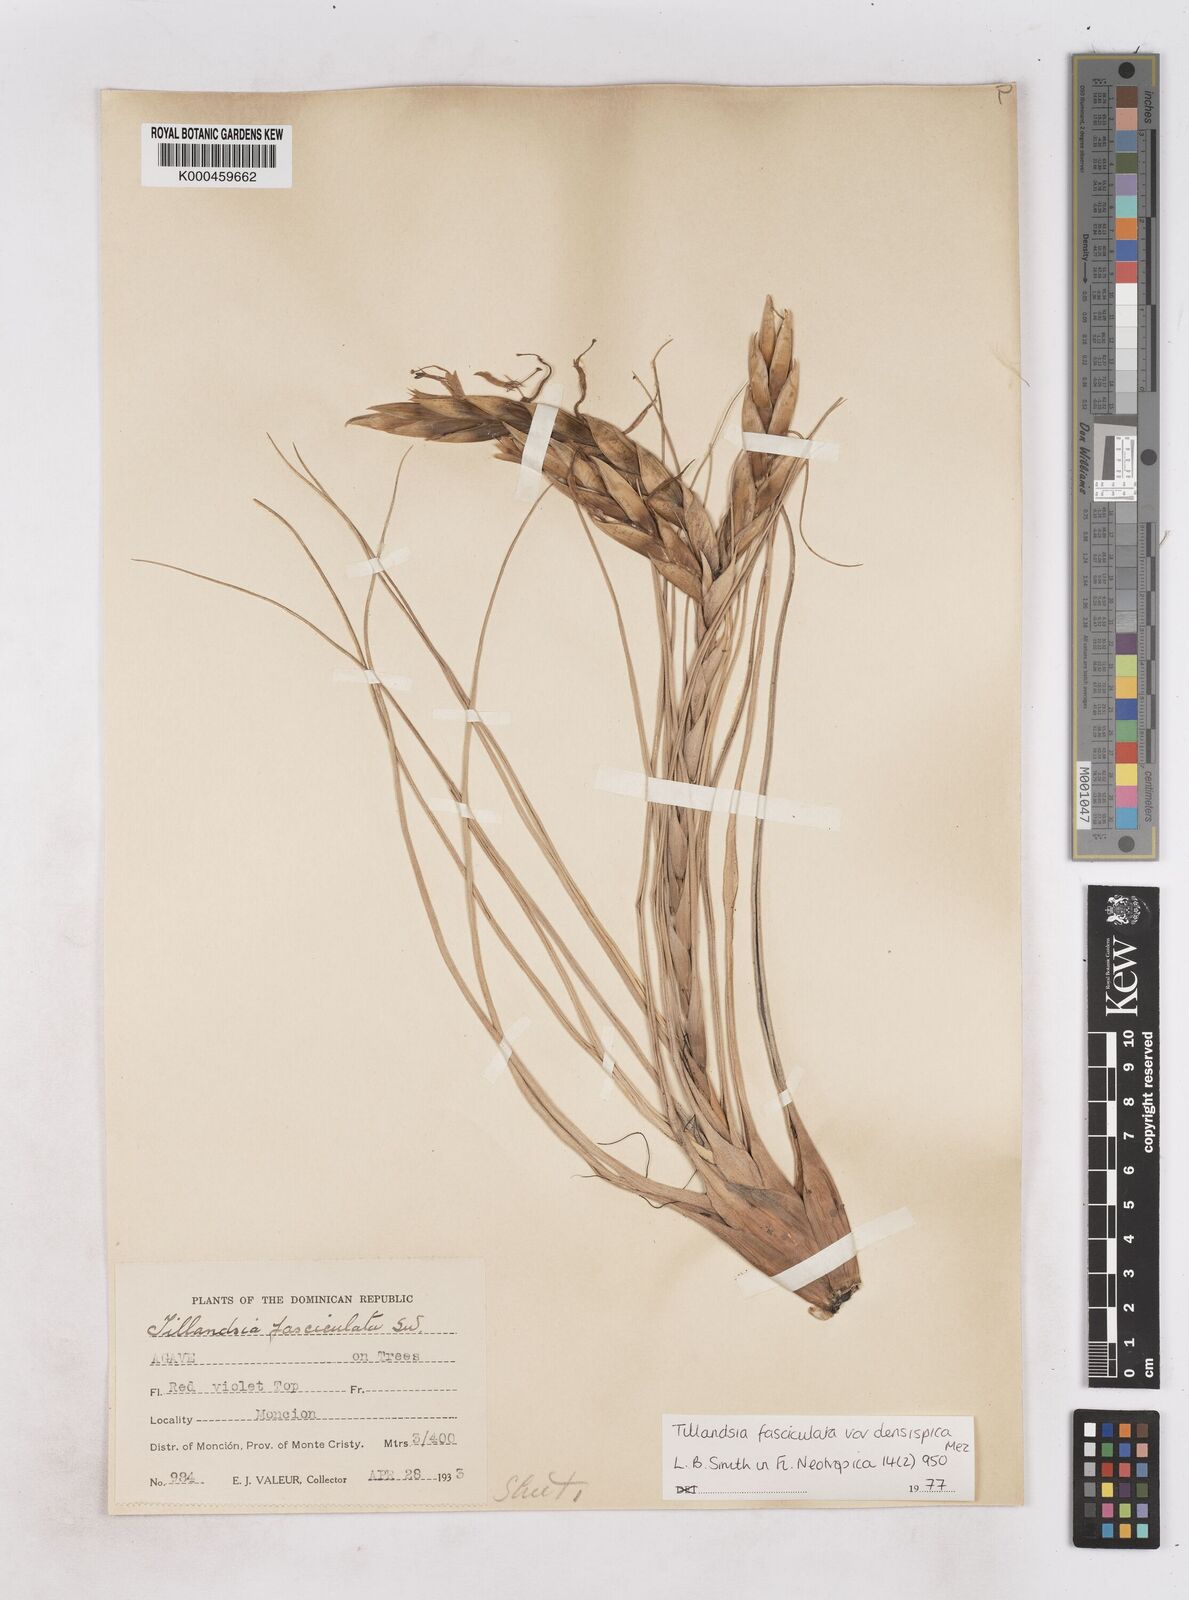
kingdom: Plantae
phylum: Tracheophyta
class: Liliopsida
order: Poales
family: Bromeliaceae
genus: Tillandsia
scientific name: Tillandsia fasciculata
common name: Giant airplant
